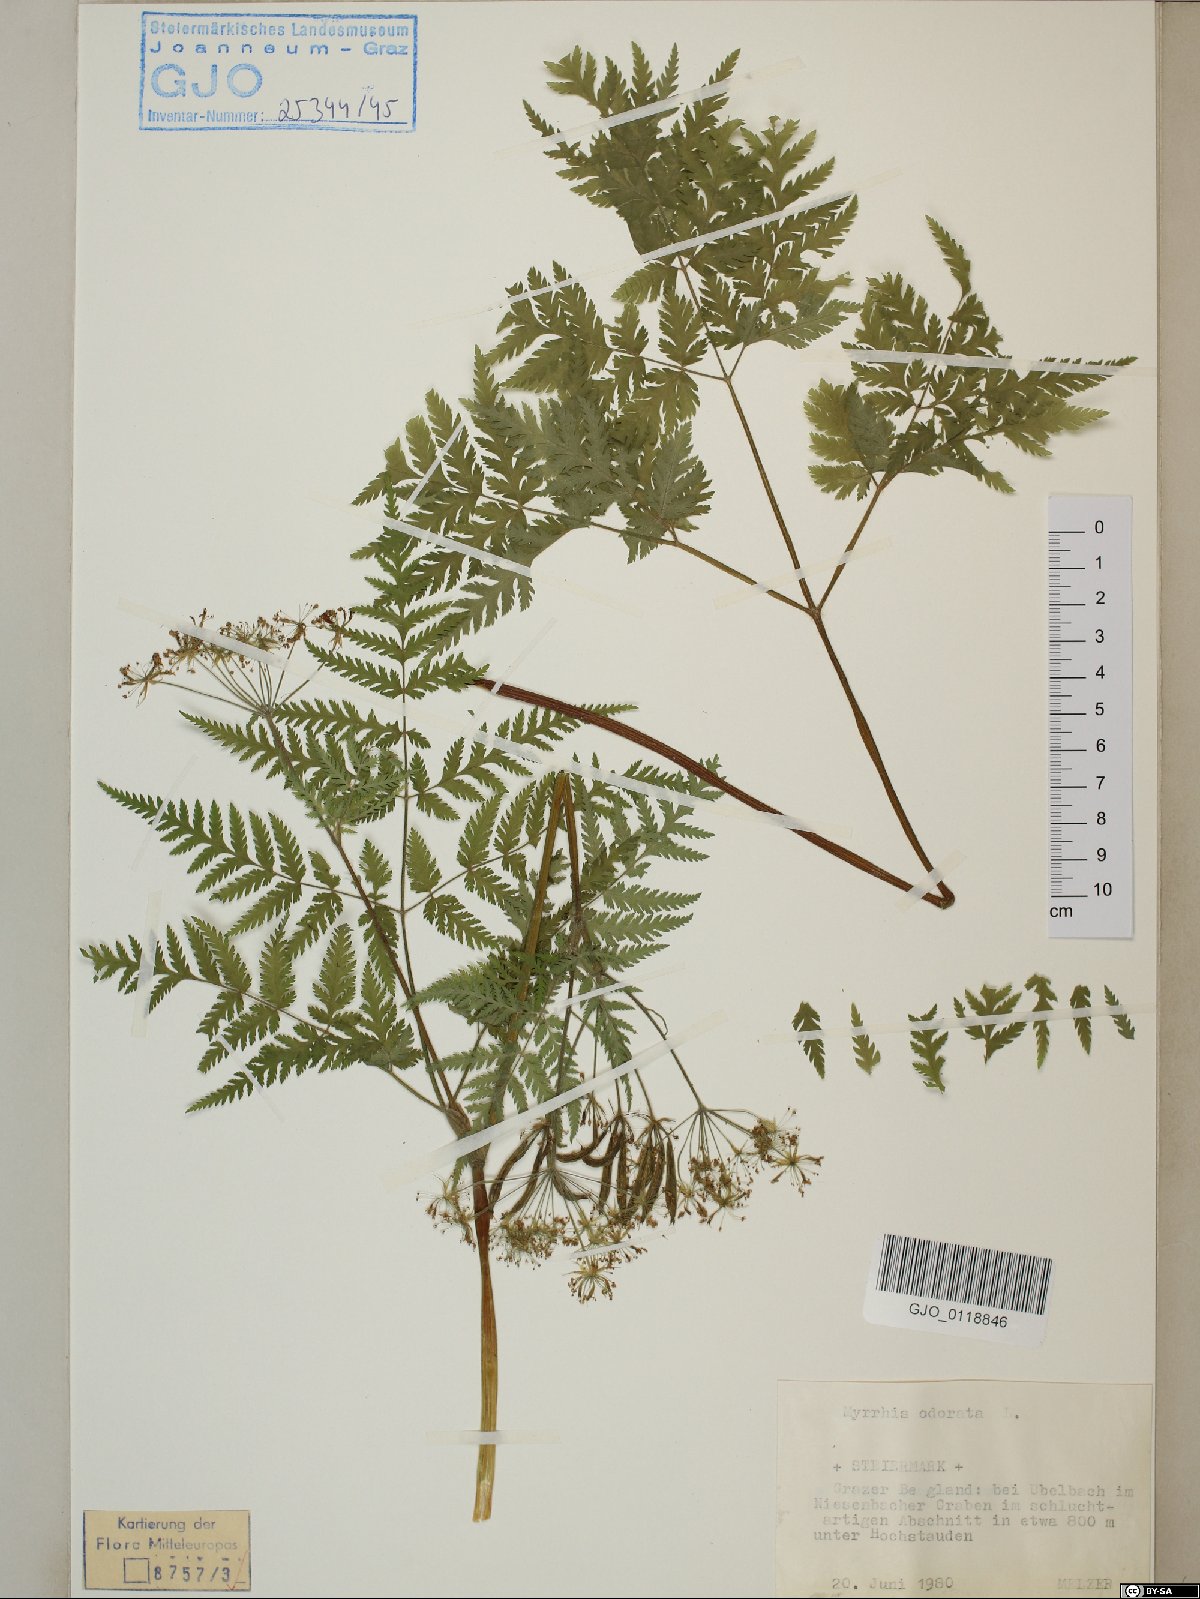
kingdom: Plantae
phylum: Tracheophyta
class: Magnoliopsida
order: Apiales
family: Apiaceae
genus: Myrrhis
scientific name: Myrrhis odorata
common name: Sweet cicely
